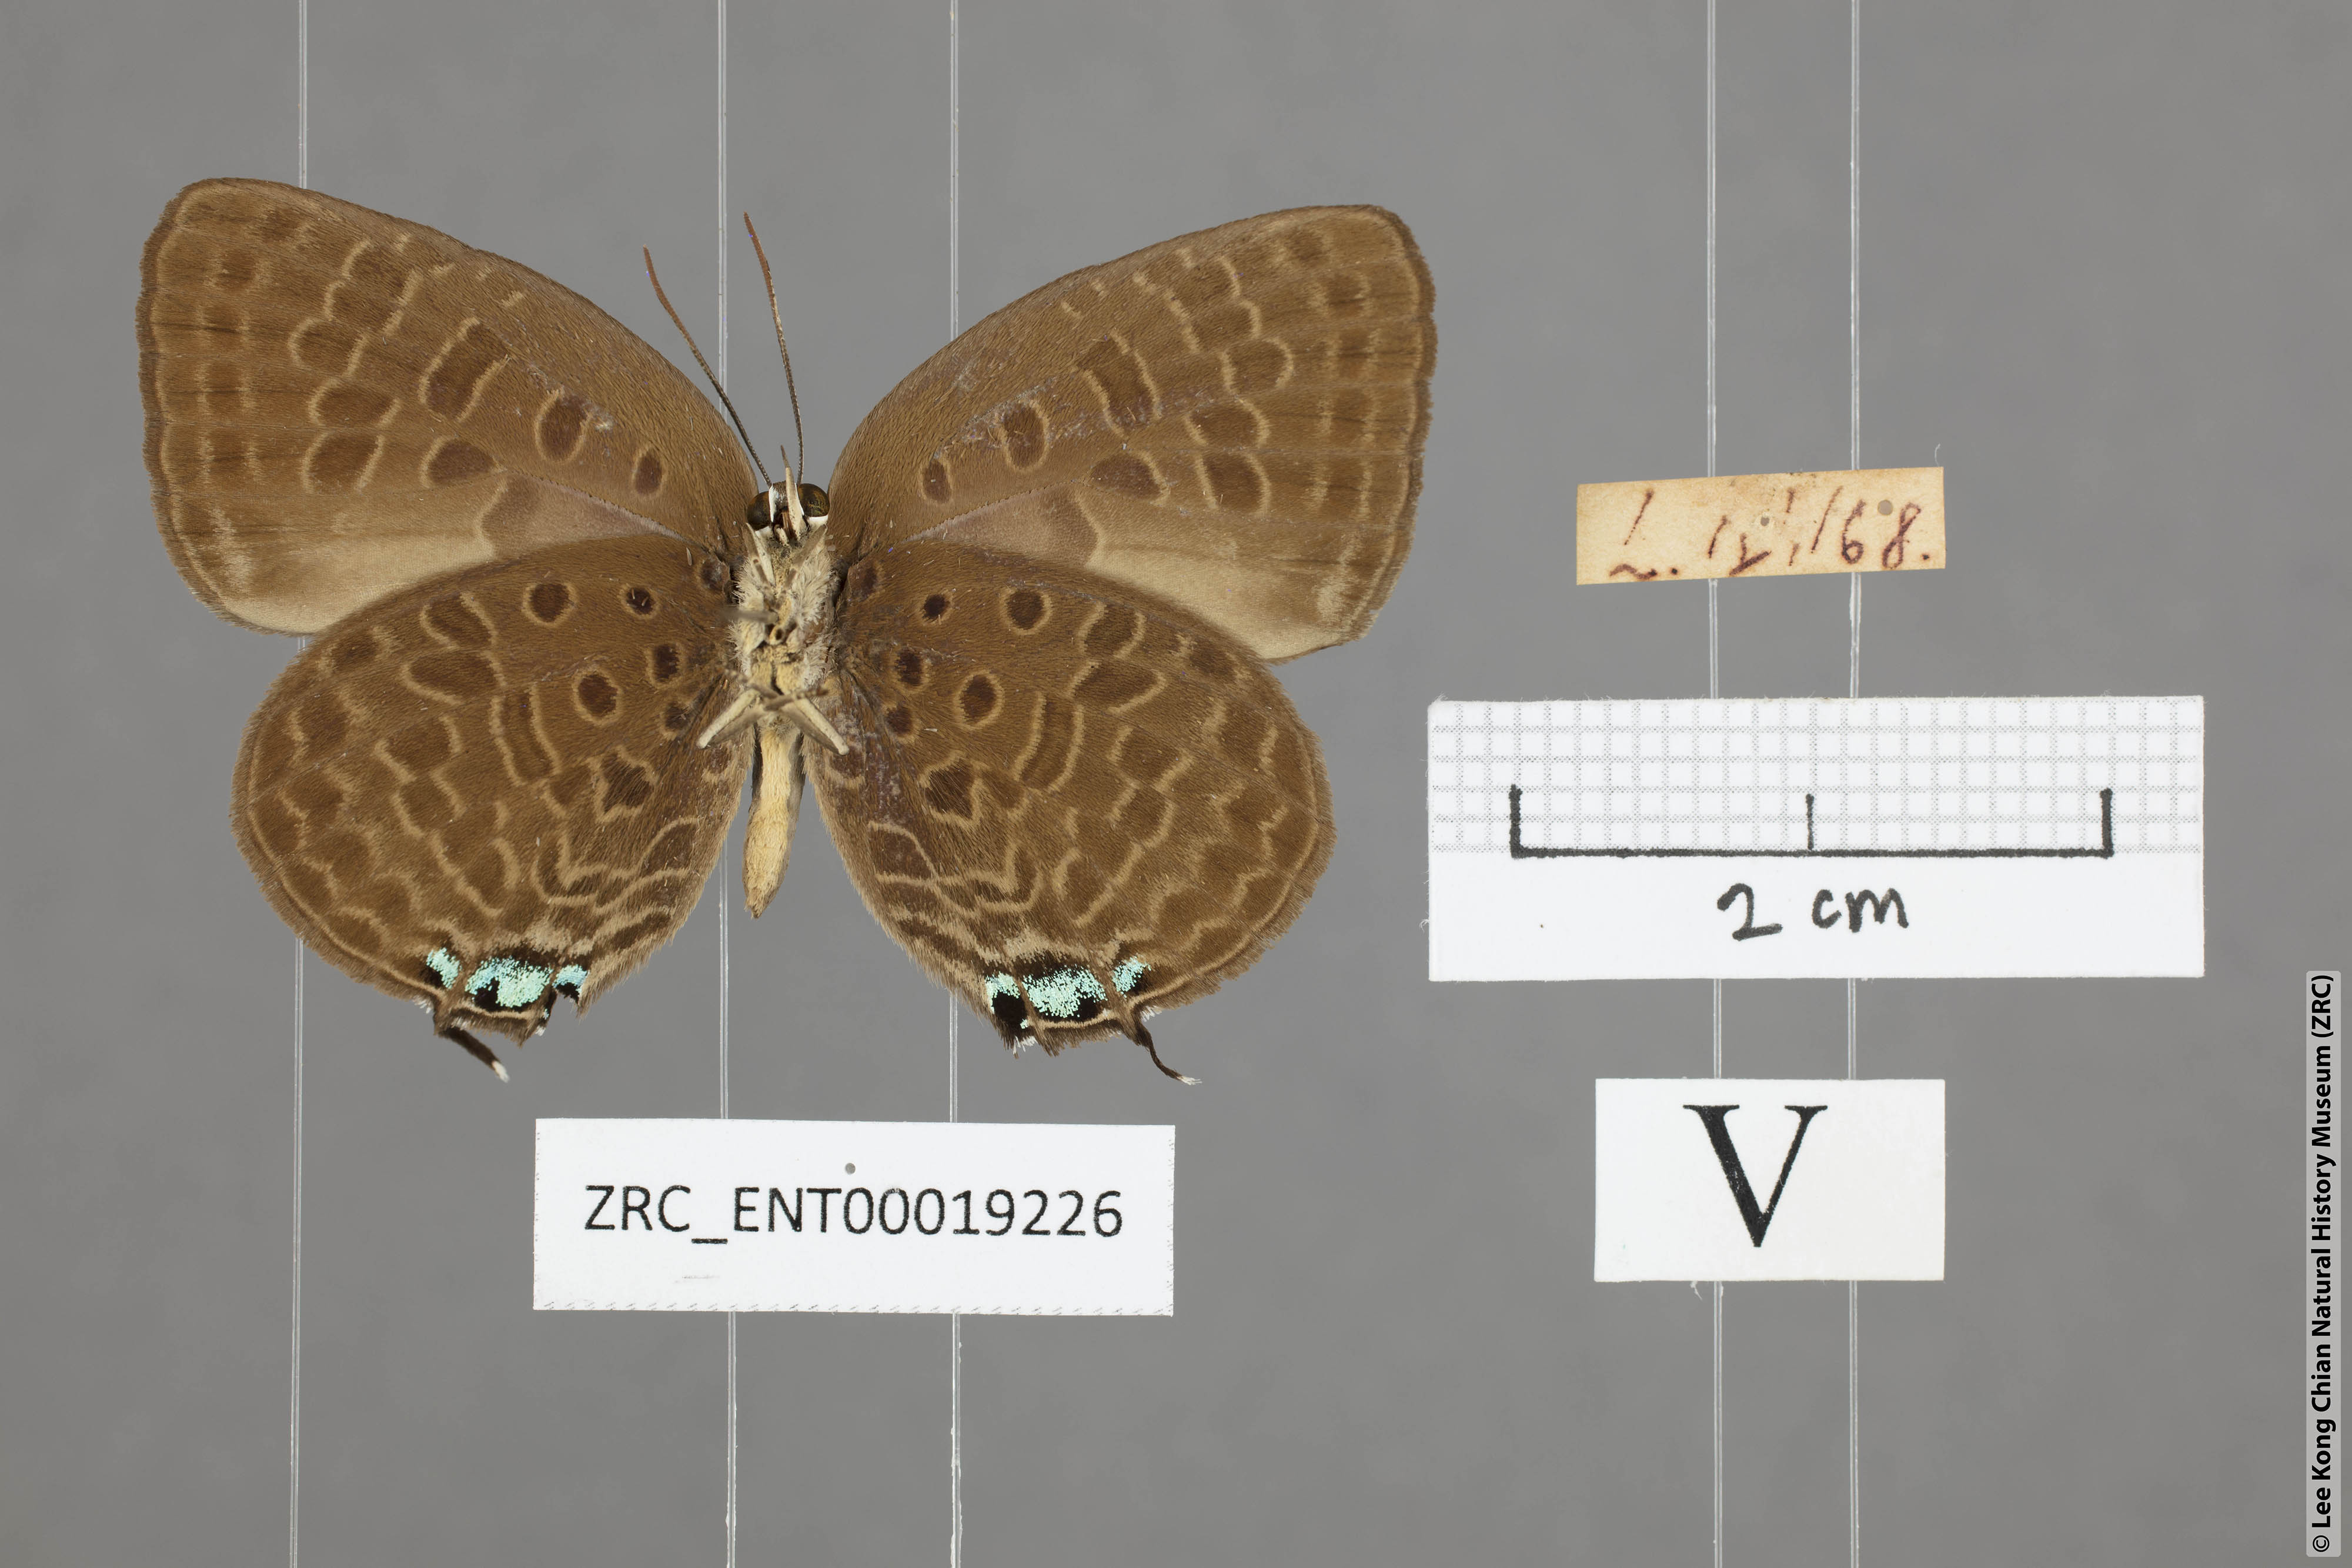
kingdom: Animalia
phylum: Arthropoda
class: Insecta
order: Lepidoptera
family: Lycaenidae
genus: Arhopala
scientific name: Arhopala atosia
